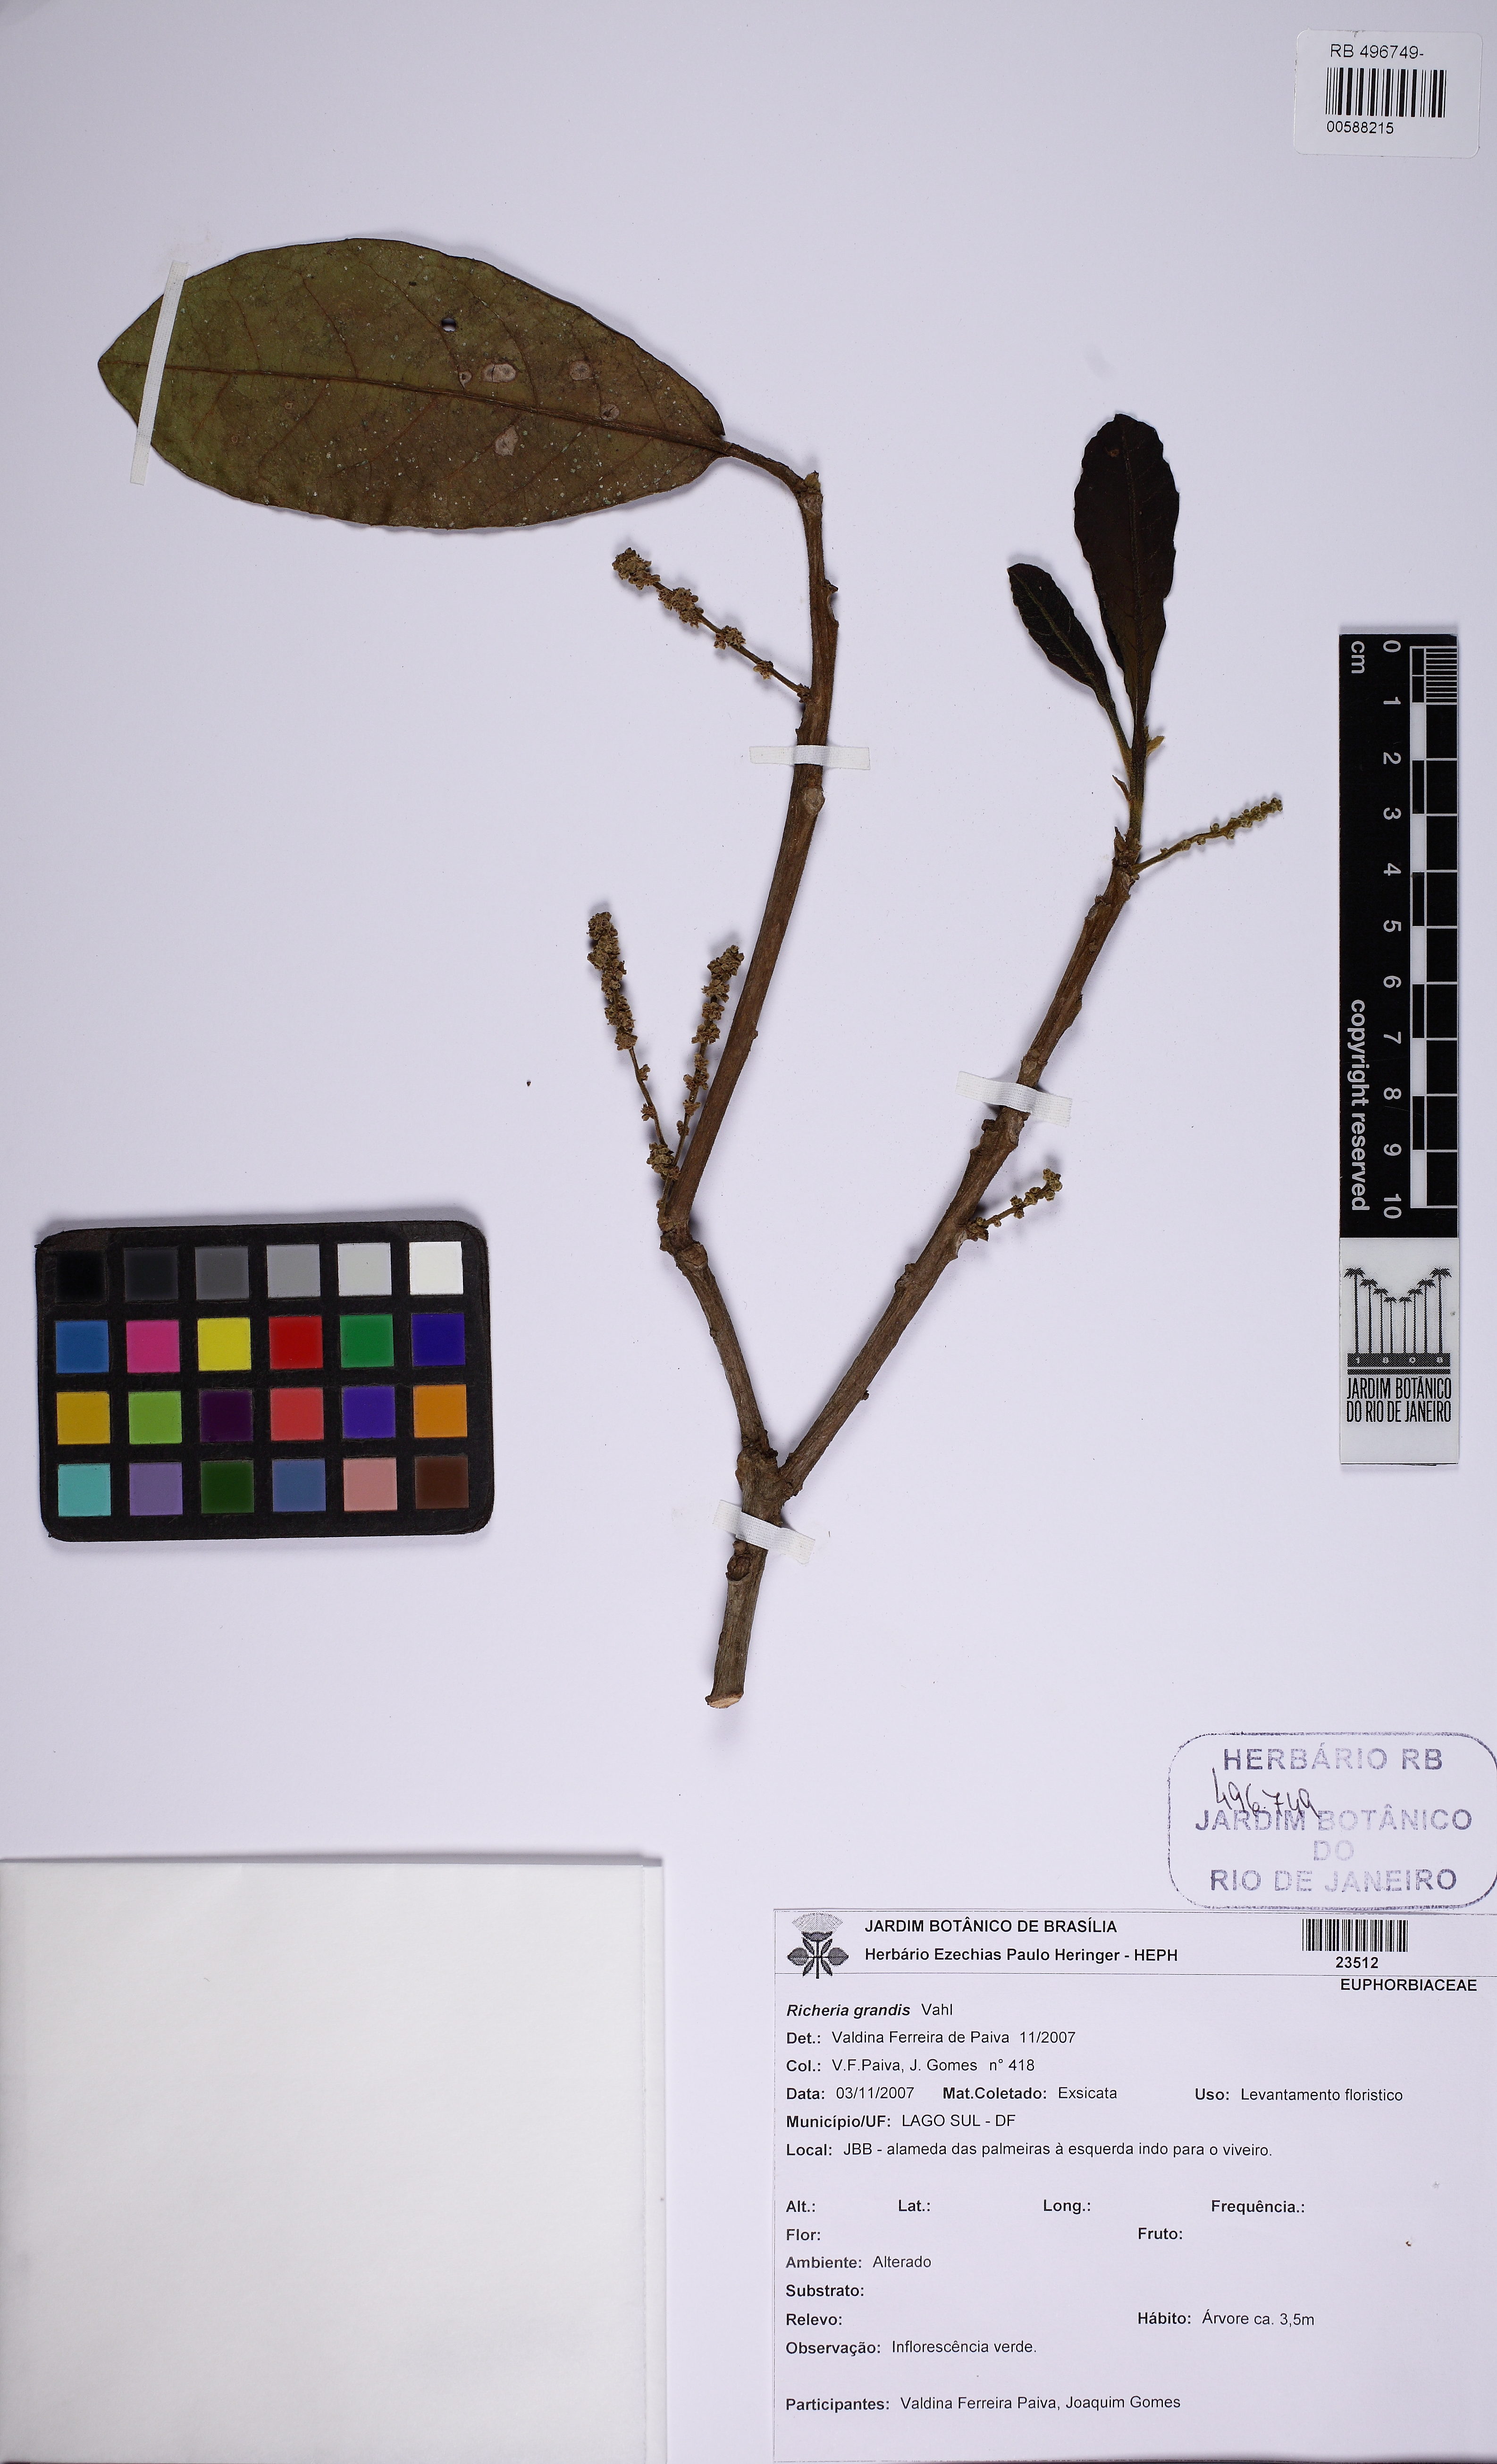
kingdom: Plantae
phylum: Tracheophyta
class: Magnoliopsida
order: Malpighiales
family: Phyllanthaceae
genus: Richeria
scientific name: Richeria grandis
